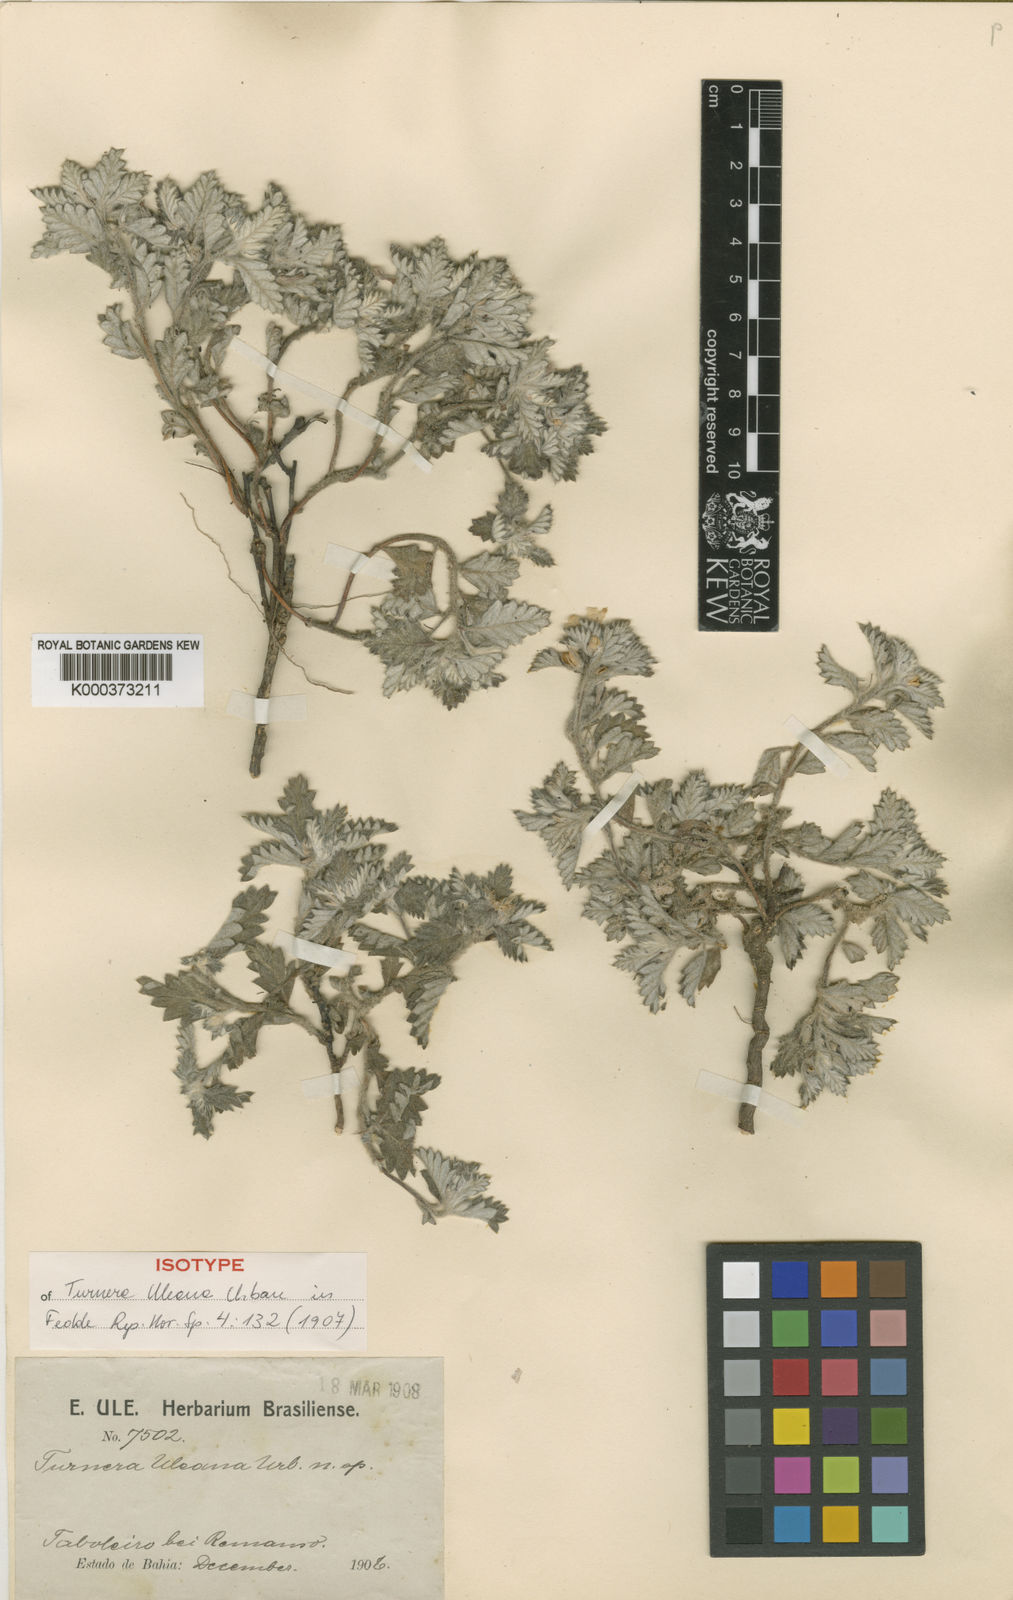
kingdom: Plantae
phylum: Tracheophyta
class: Magnoliopsida
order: Malpighiales
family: Turneraceae
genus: Turnera
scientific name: Turnera uleana
